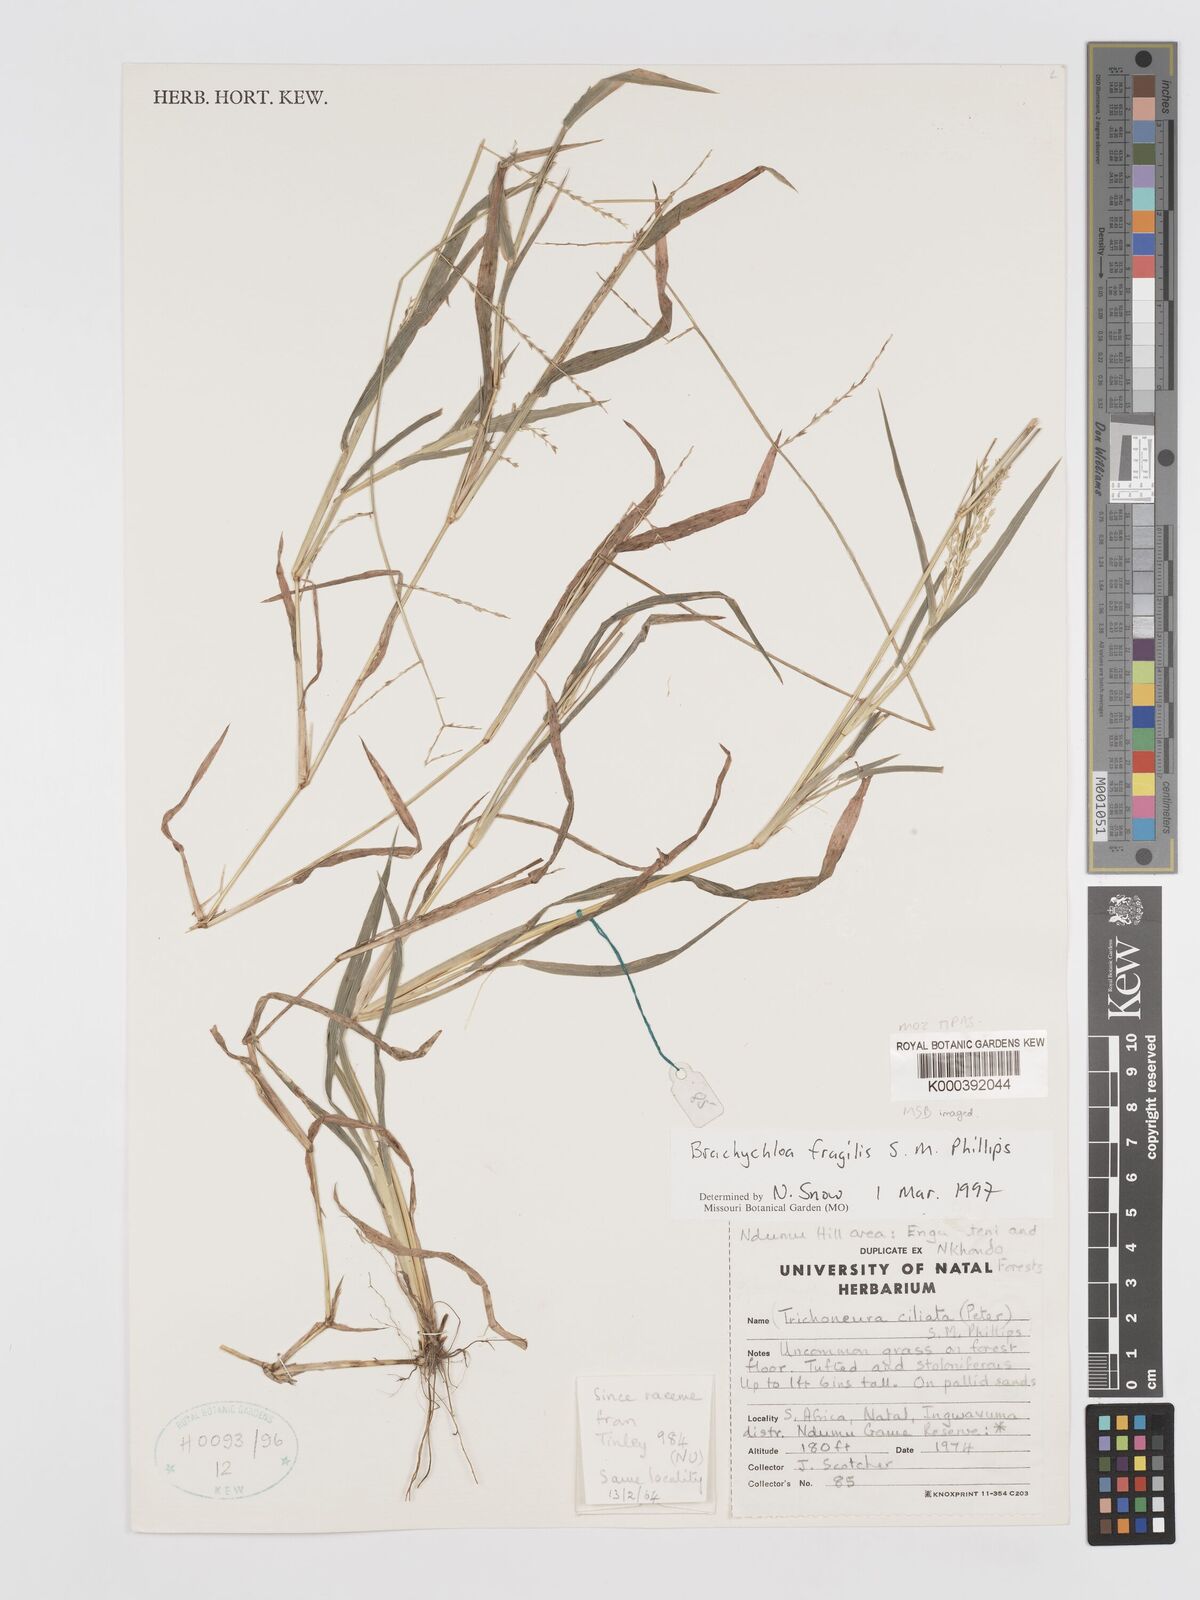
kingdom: Plantae
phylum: Tracheophyta
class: Liliopsida
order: Poales
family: Poaceae
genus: Brachychloa
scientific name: Brachychloa fragilis
